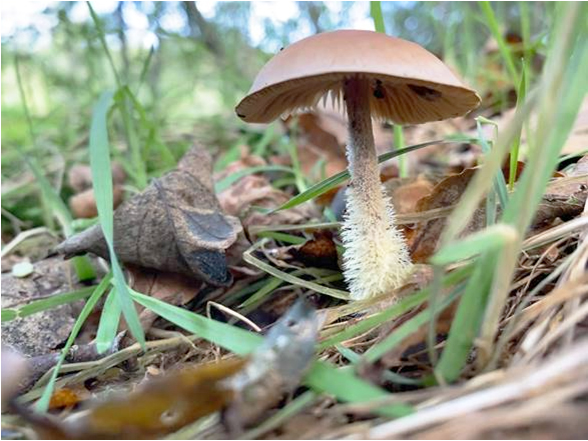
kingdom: Fungi
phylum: Basidiomycota
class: Agaricomycetes
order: Agaricales
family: Omphalotaceae
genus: Collybiopsis
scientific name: Collybiopsis peronata
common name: bestøvlet fladhat
